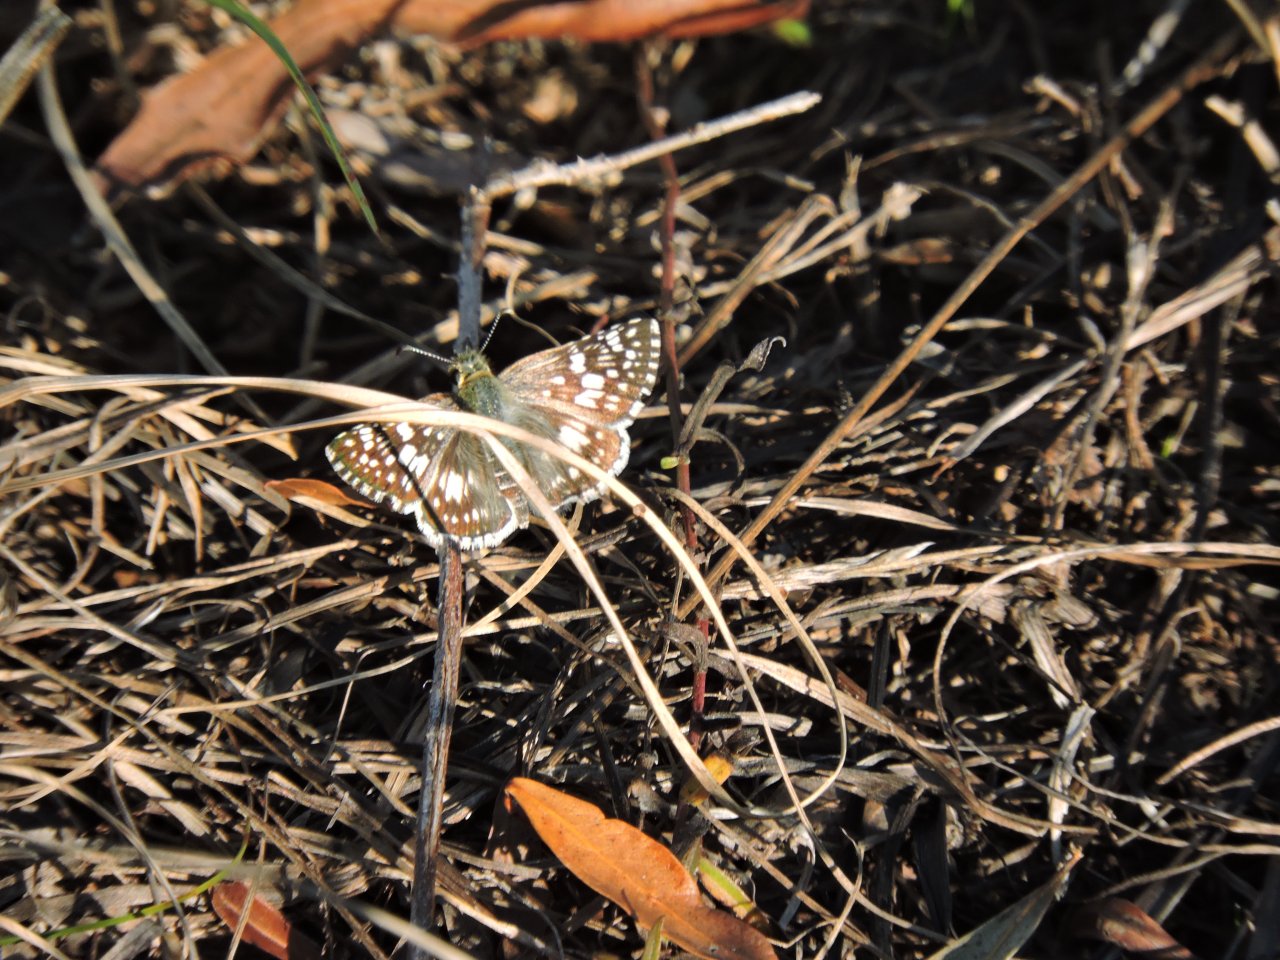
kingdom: Animalia
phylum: Arthropoda
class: Insecta
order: Lepidoptera
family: Hesperiidae
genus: Pyrgus
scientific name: Pyrgus
